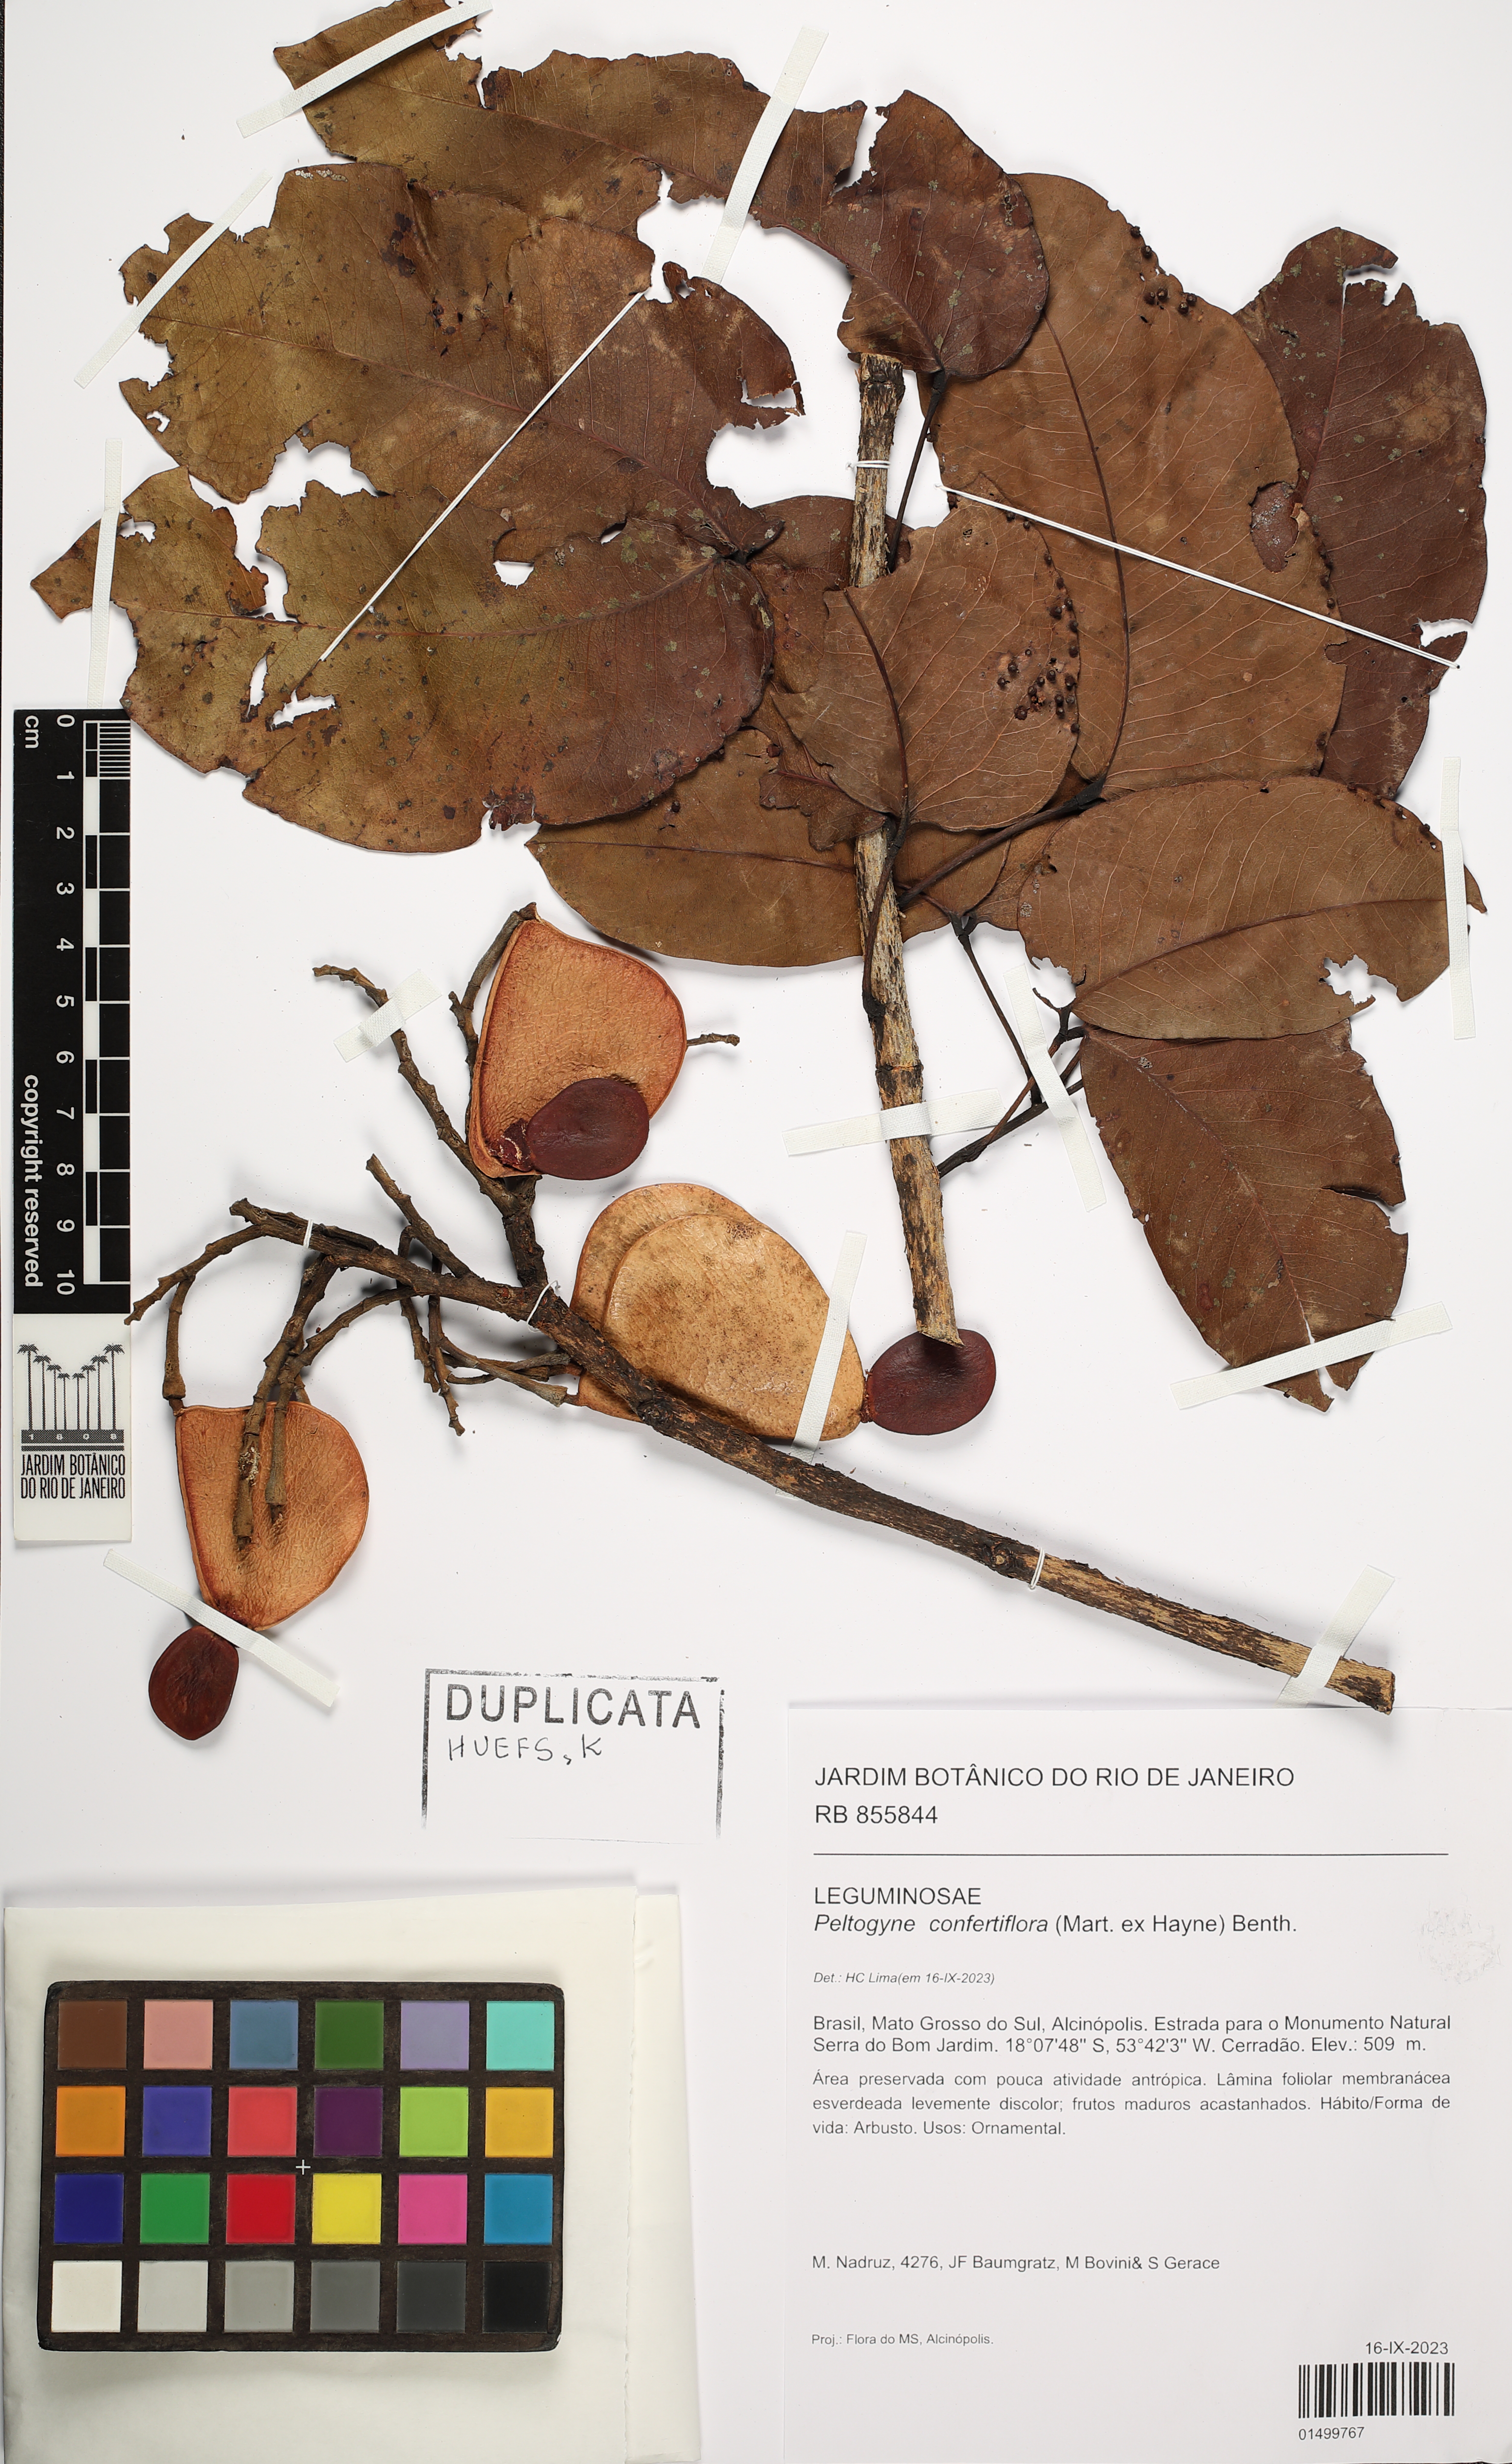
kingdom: Plantae
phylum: Tracheophyta
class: Magnoliopsida
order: Fabales
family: Fabaceae
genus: Peltogyne
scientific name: Peltogyne confertiflora
